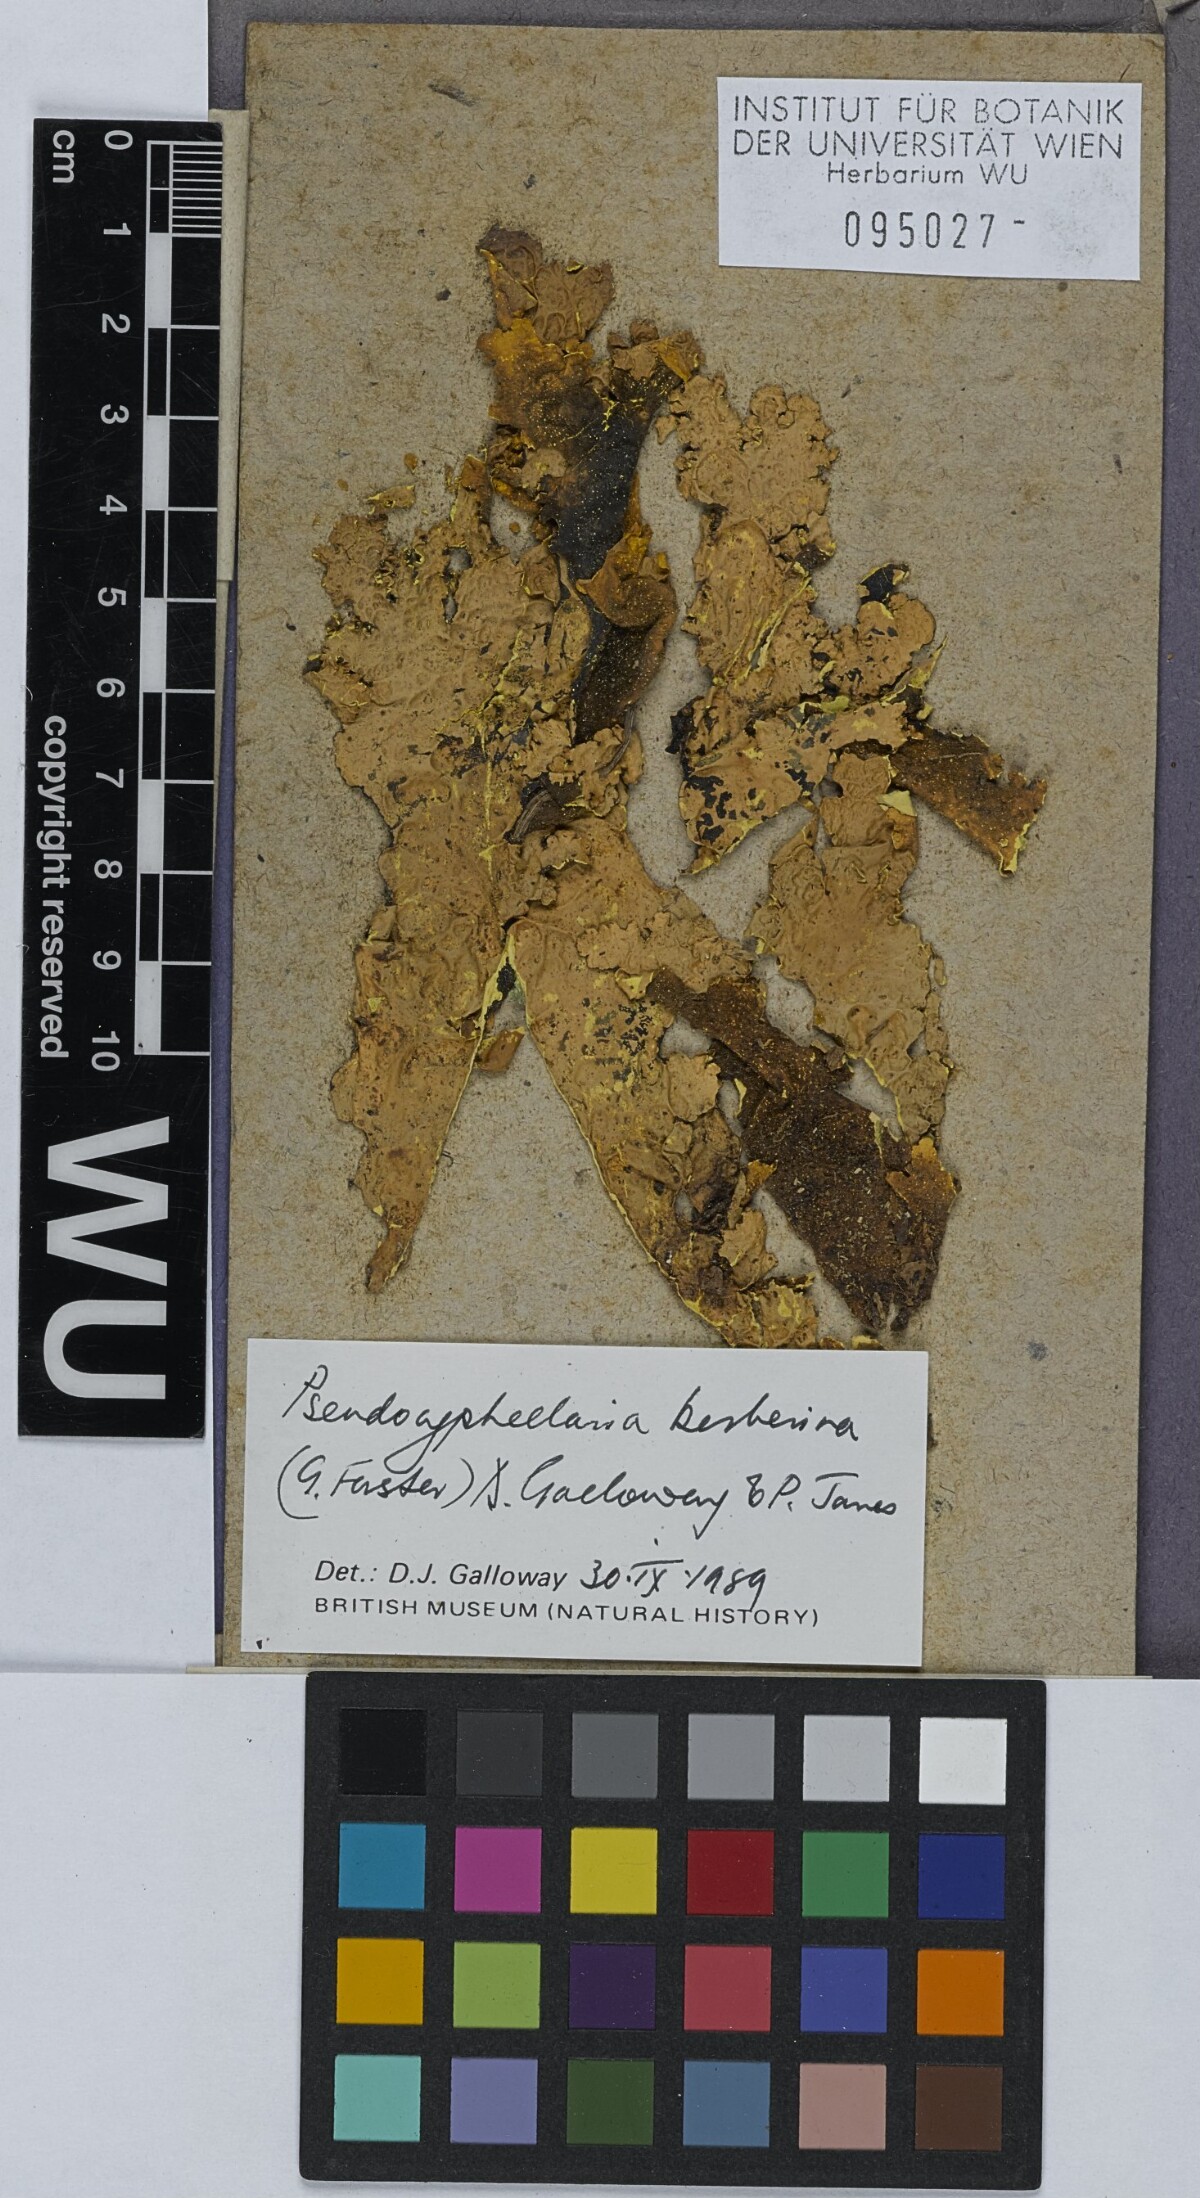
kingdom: Fungi
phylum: Ascomycota
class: Lecanoromycetes
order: Peltigerales
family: Lobariaceae
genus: Podostictina
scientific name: Podostictina berberina
